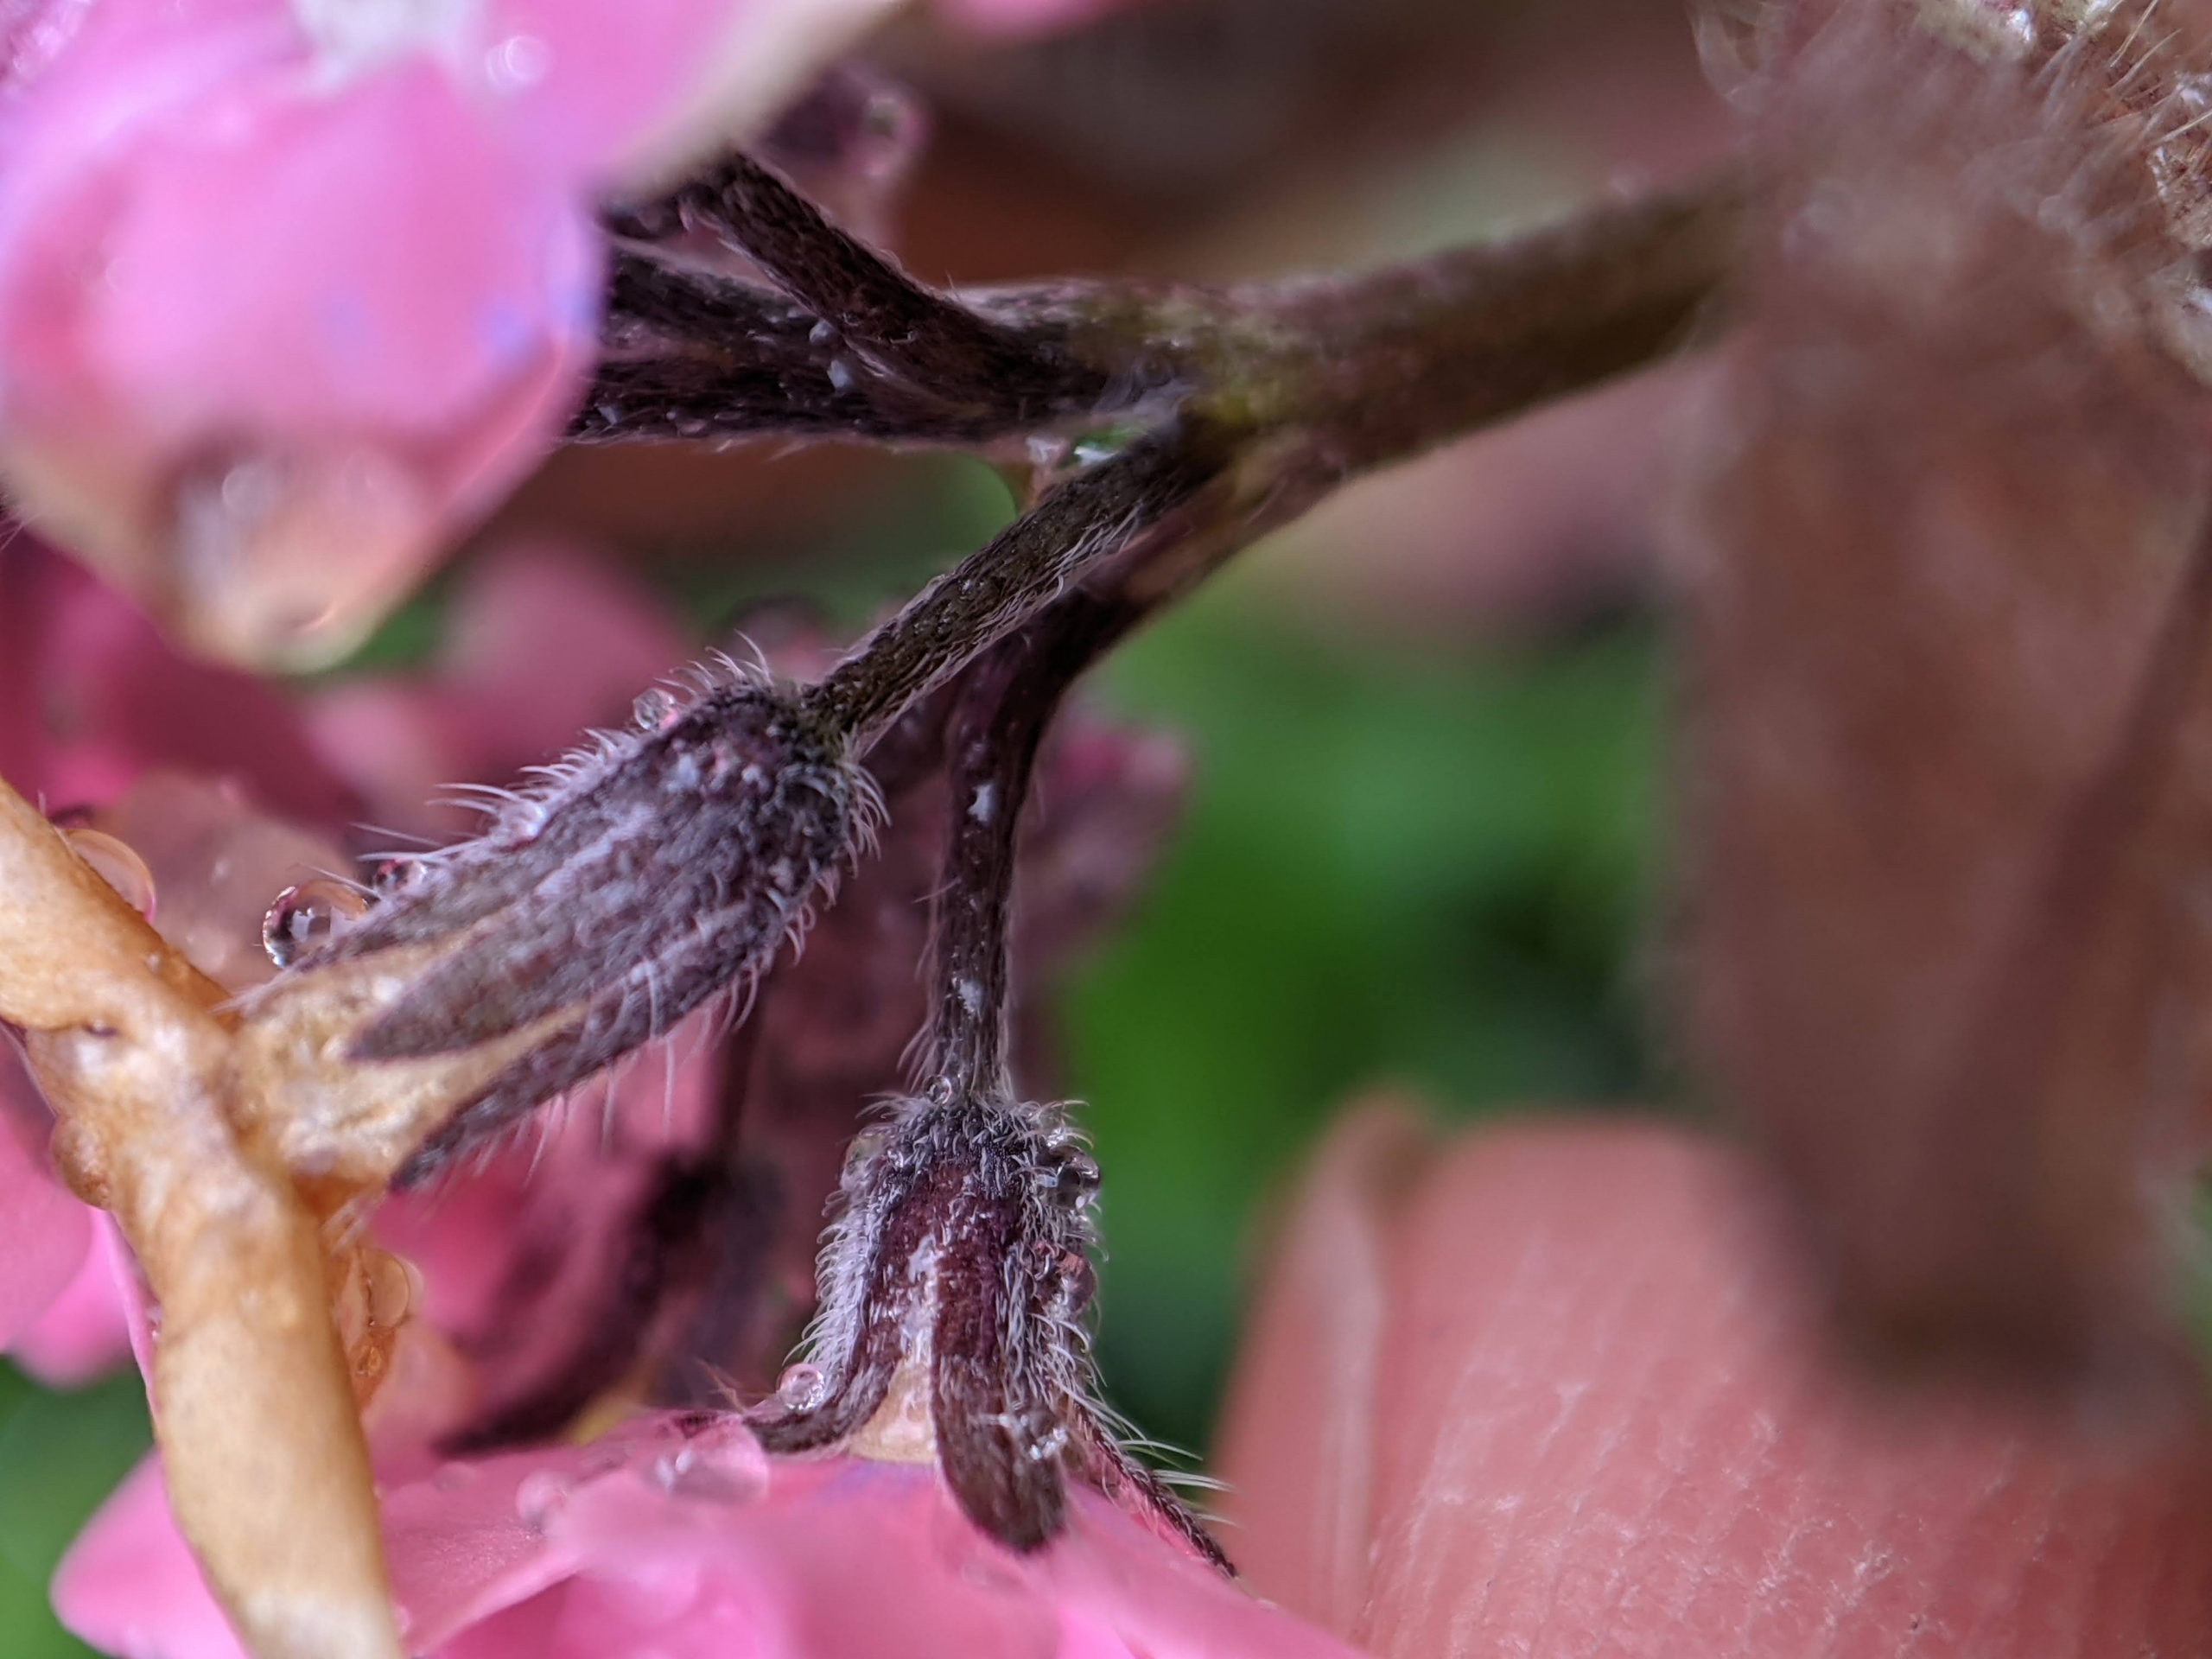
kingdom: Plantae
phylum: Tracheophyta
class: Magnoliopsida
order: Boraginales
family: Boraginaceae
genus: Myosotis
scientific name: Myosotis sylvatica
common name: Skov-forglemmigej
